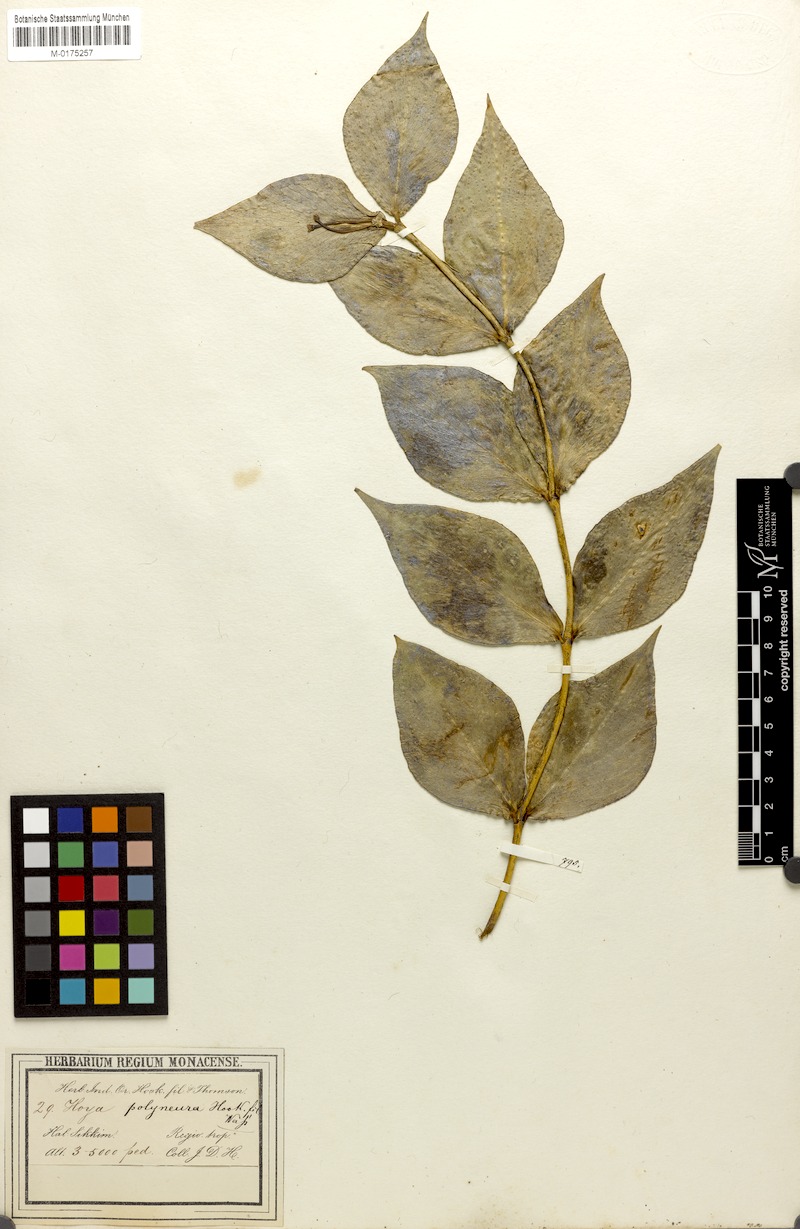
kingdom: Plantae
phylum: Tracheophyta
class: Magnoliopsida
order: Gentianales
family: Apocynaceae
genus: Hoya
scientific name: Hoya polyneura
